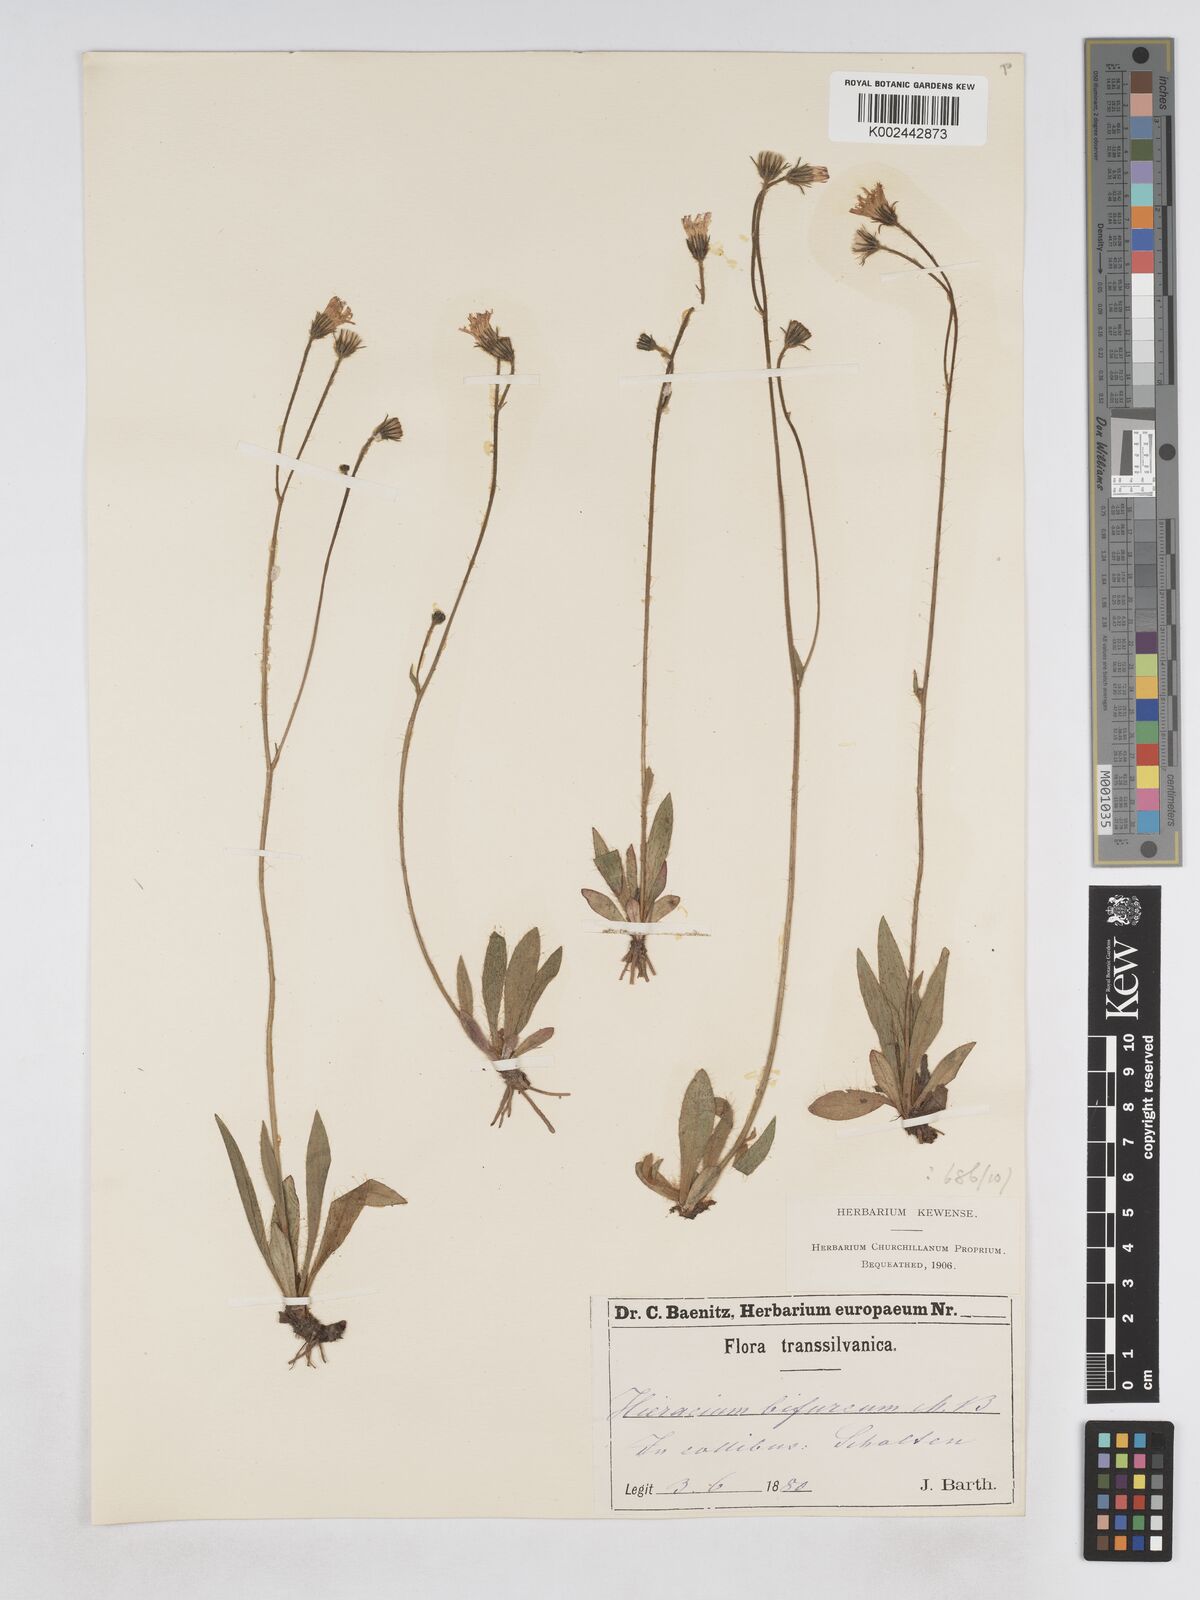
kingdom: Plantae
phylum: Tracheophyta
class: Magnoliopsida
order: Asterales
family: Asteraceae
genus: Pilosella
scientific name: Pilosella bifurca
